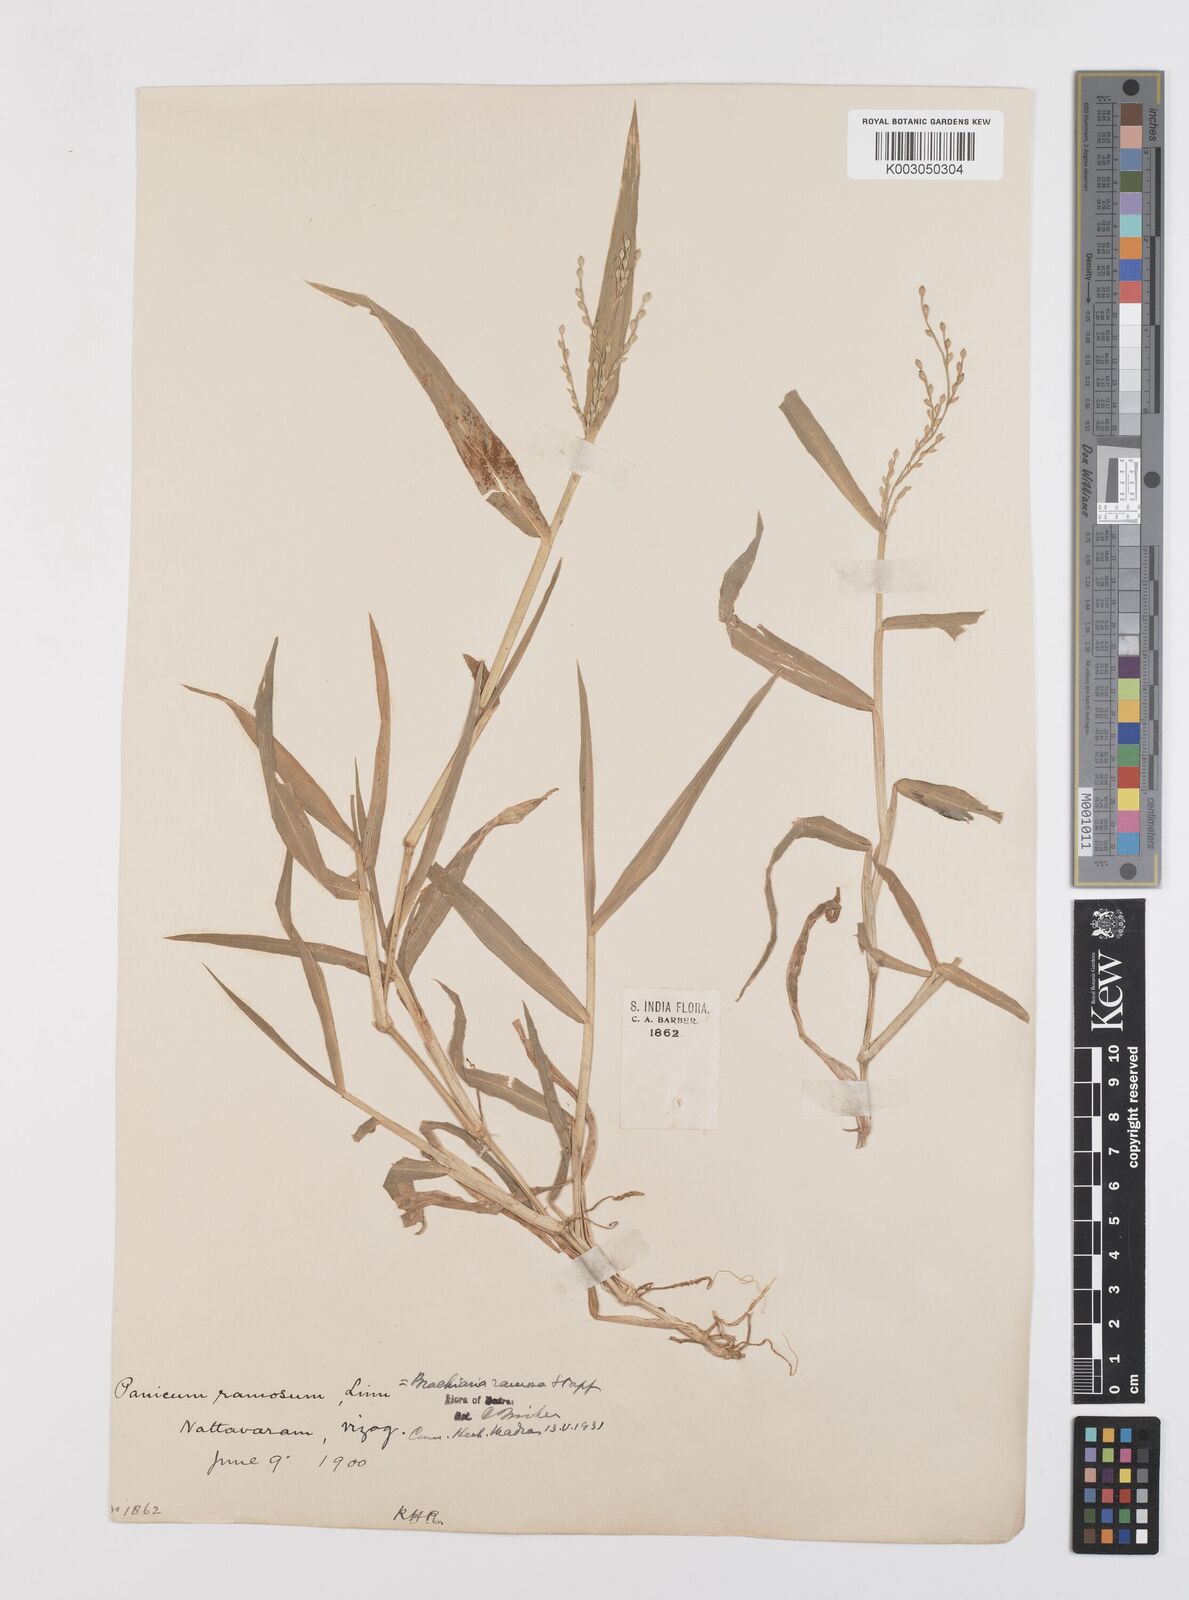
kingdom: Plantae
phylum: Tracheophyta
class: Liliopsida
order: Poales
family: Poaceae
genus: Urochloa
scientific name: Urochloa ramosa
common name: Browntop millet
